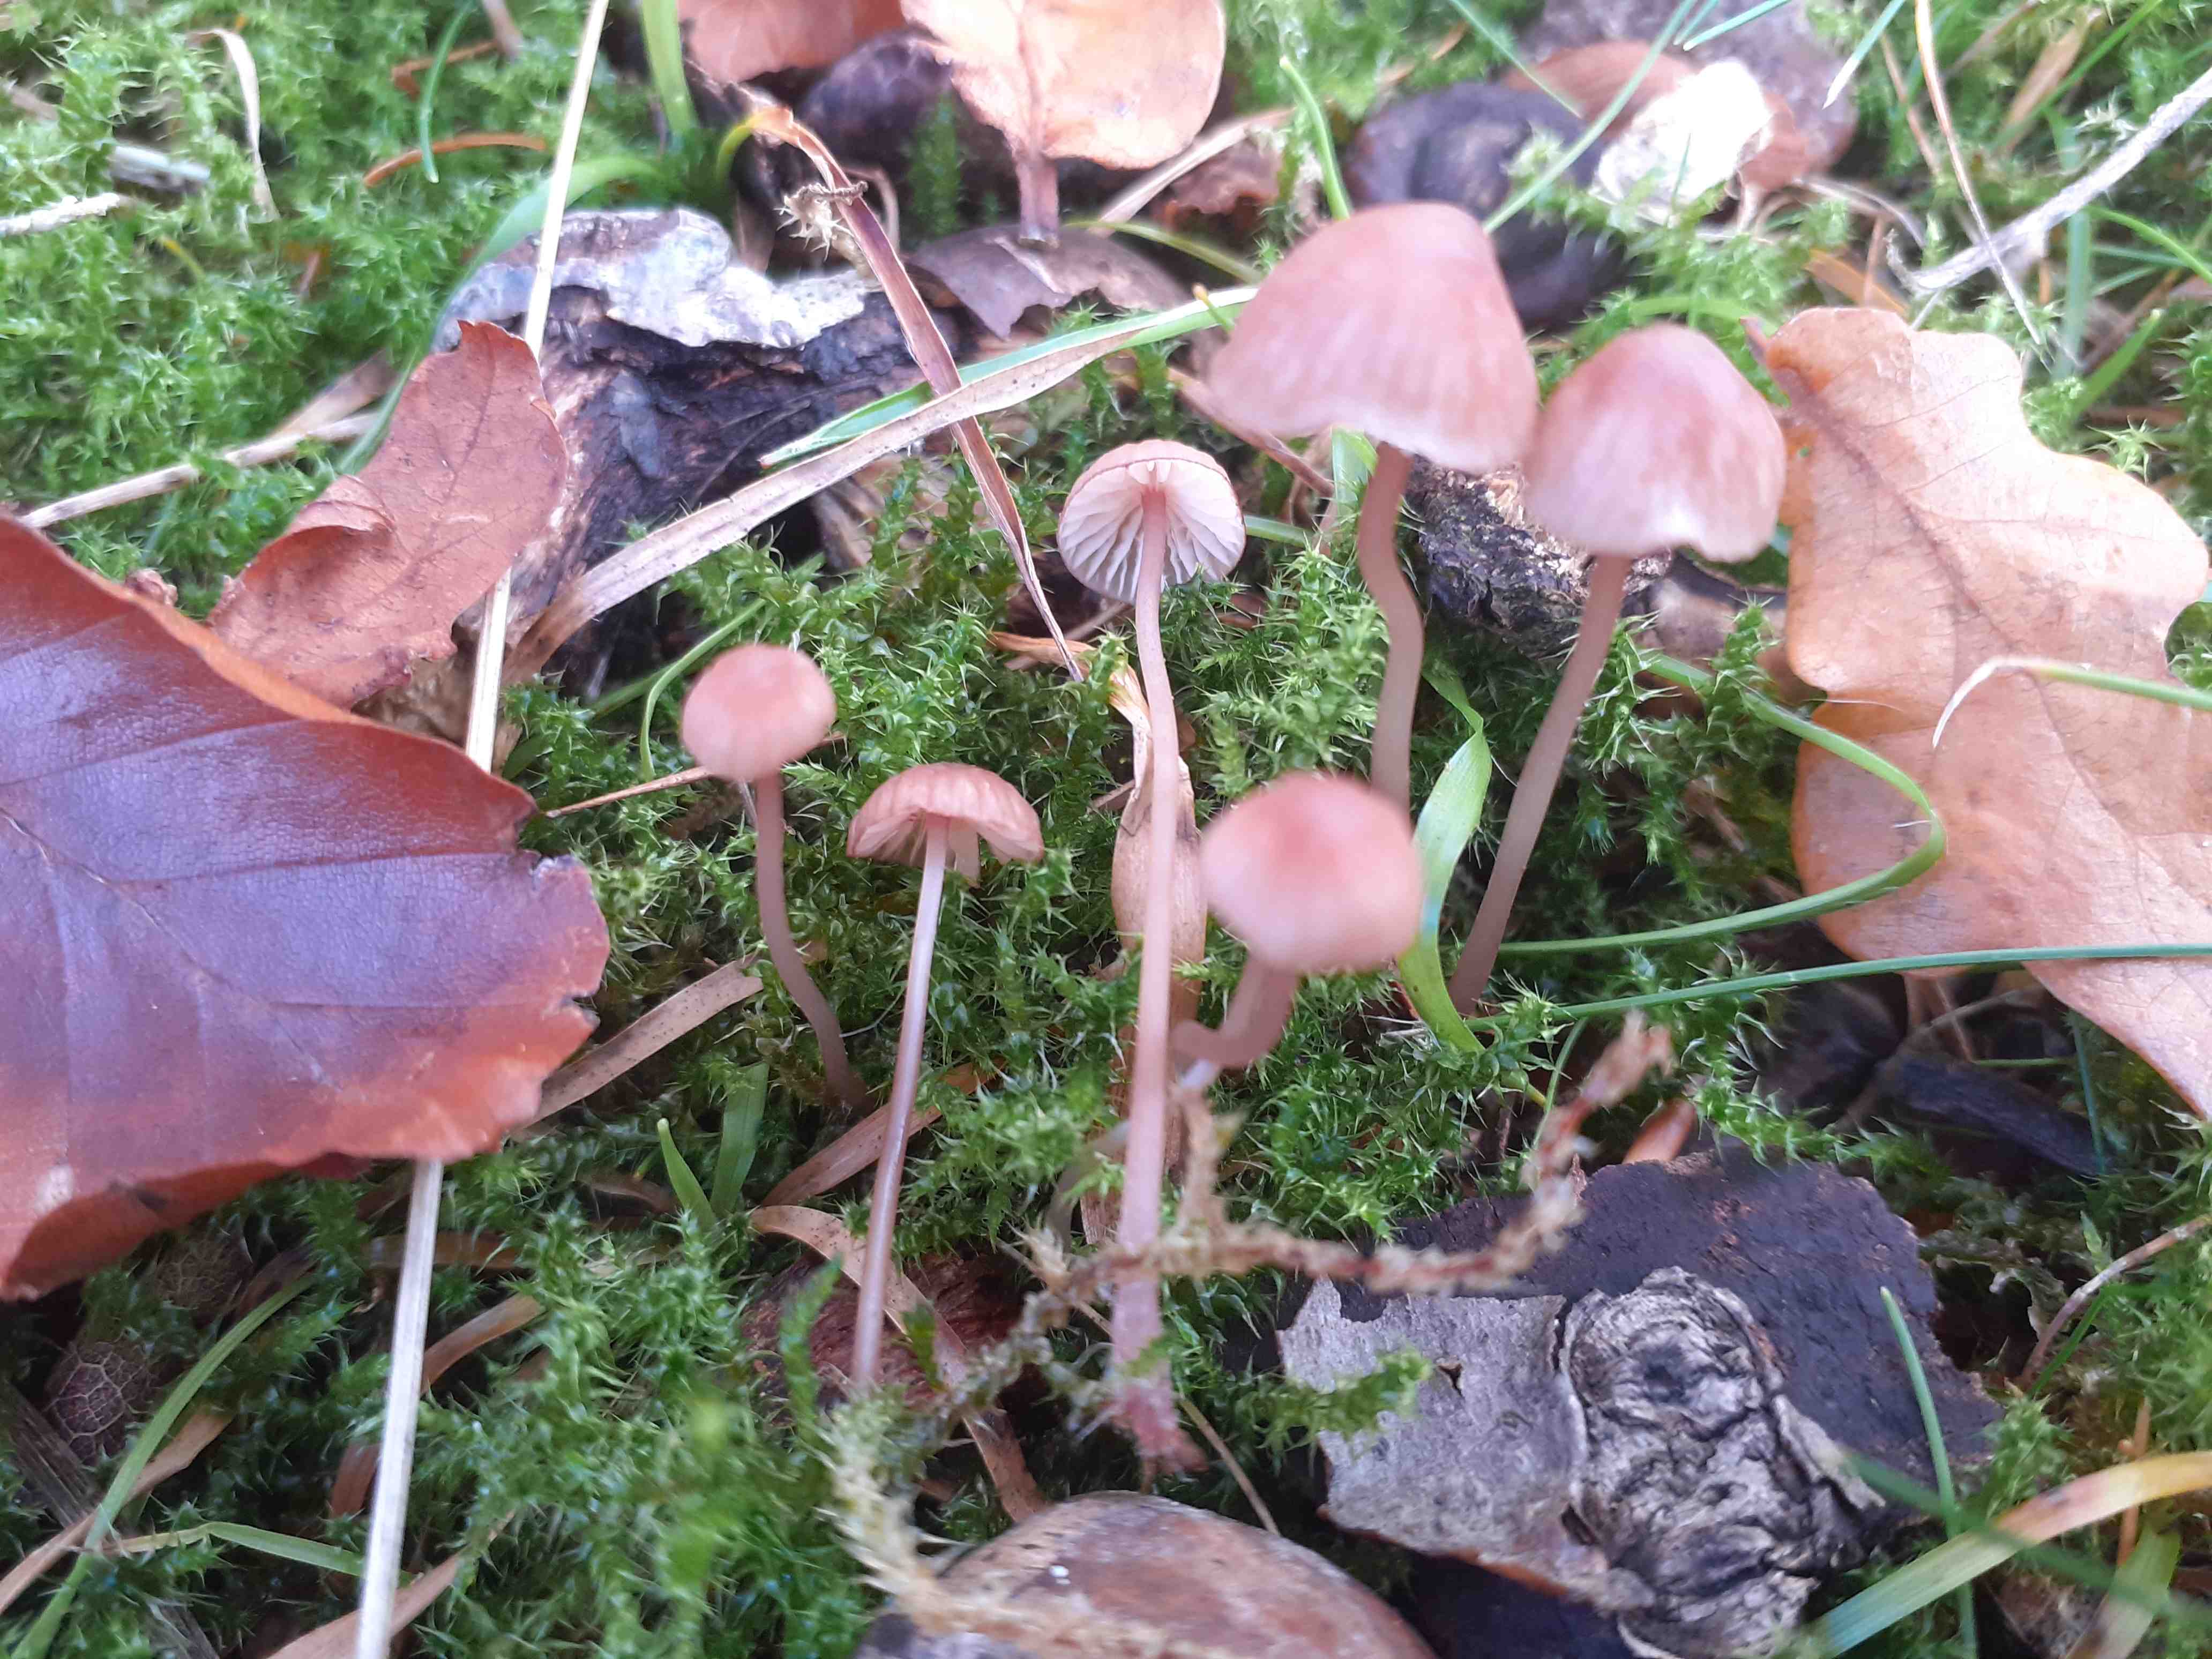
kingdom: Fungi
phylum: Basidiomycota
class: Agaricomycetes
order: Agaricales
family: Mycenaceae
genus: Mycena
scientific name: Mycena sanguinolenta
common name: rødmælket huesvamp
